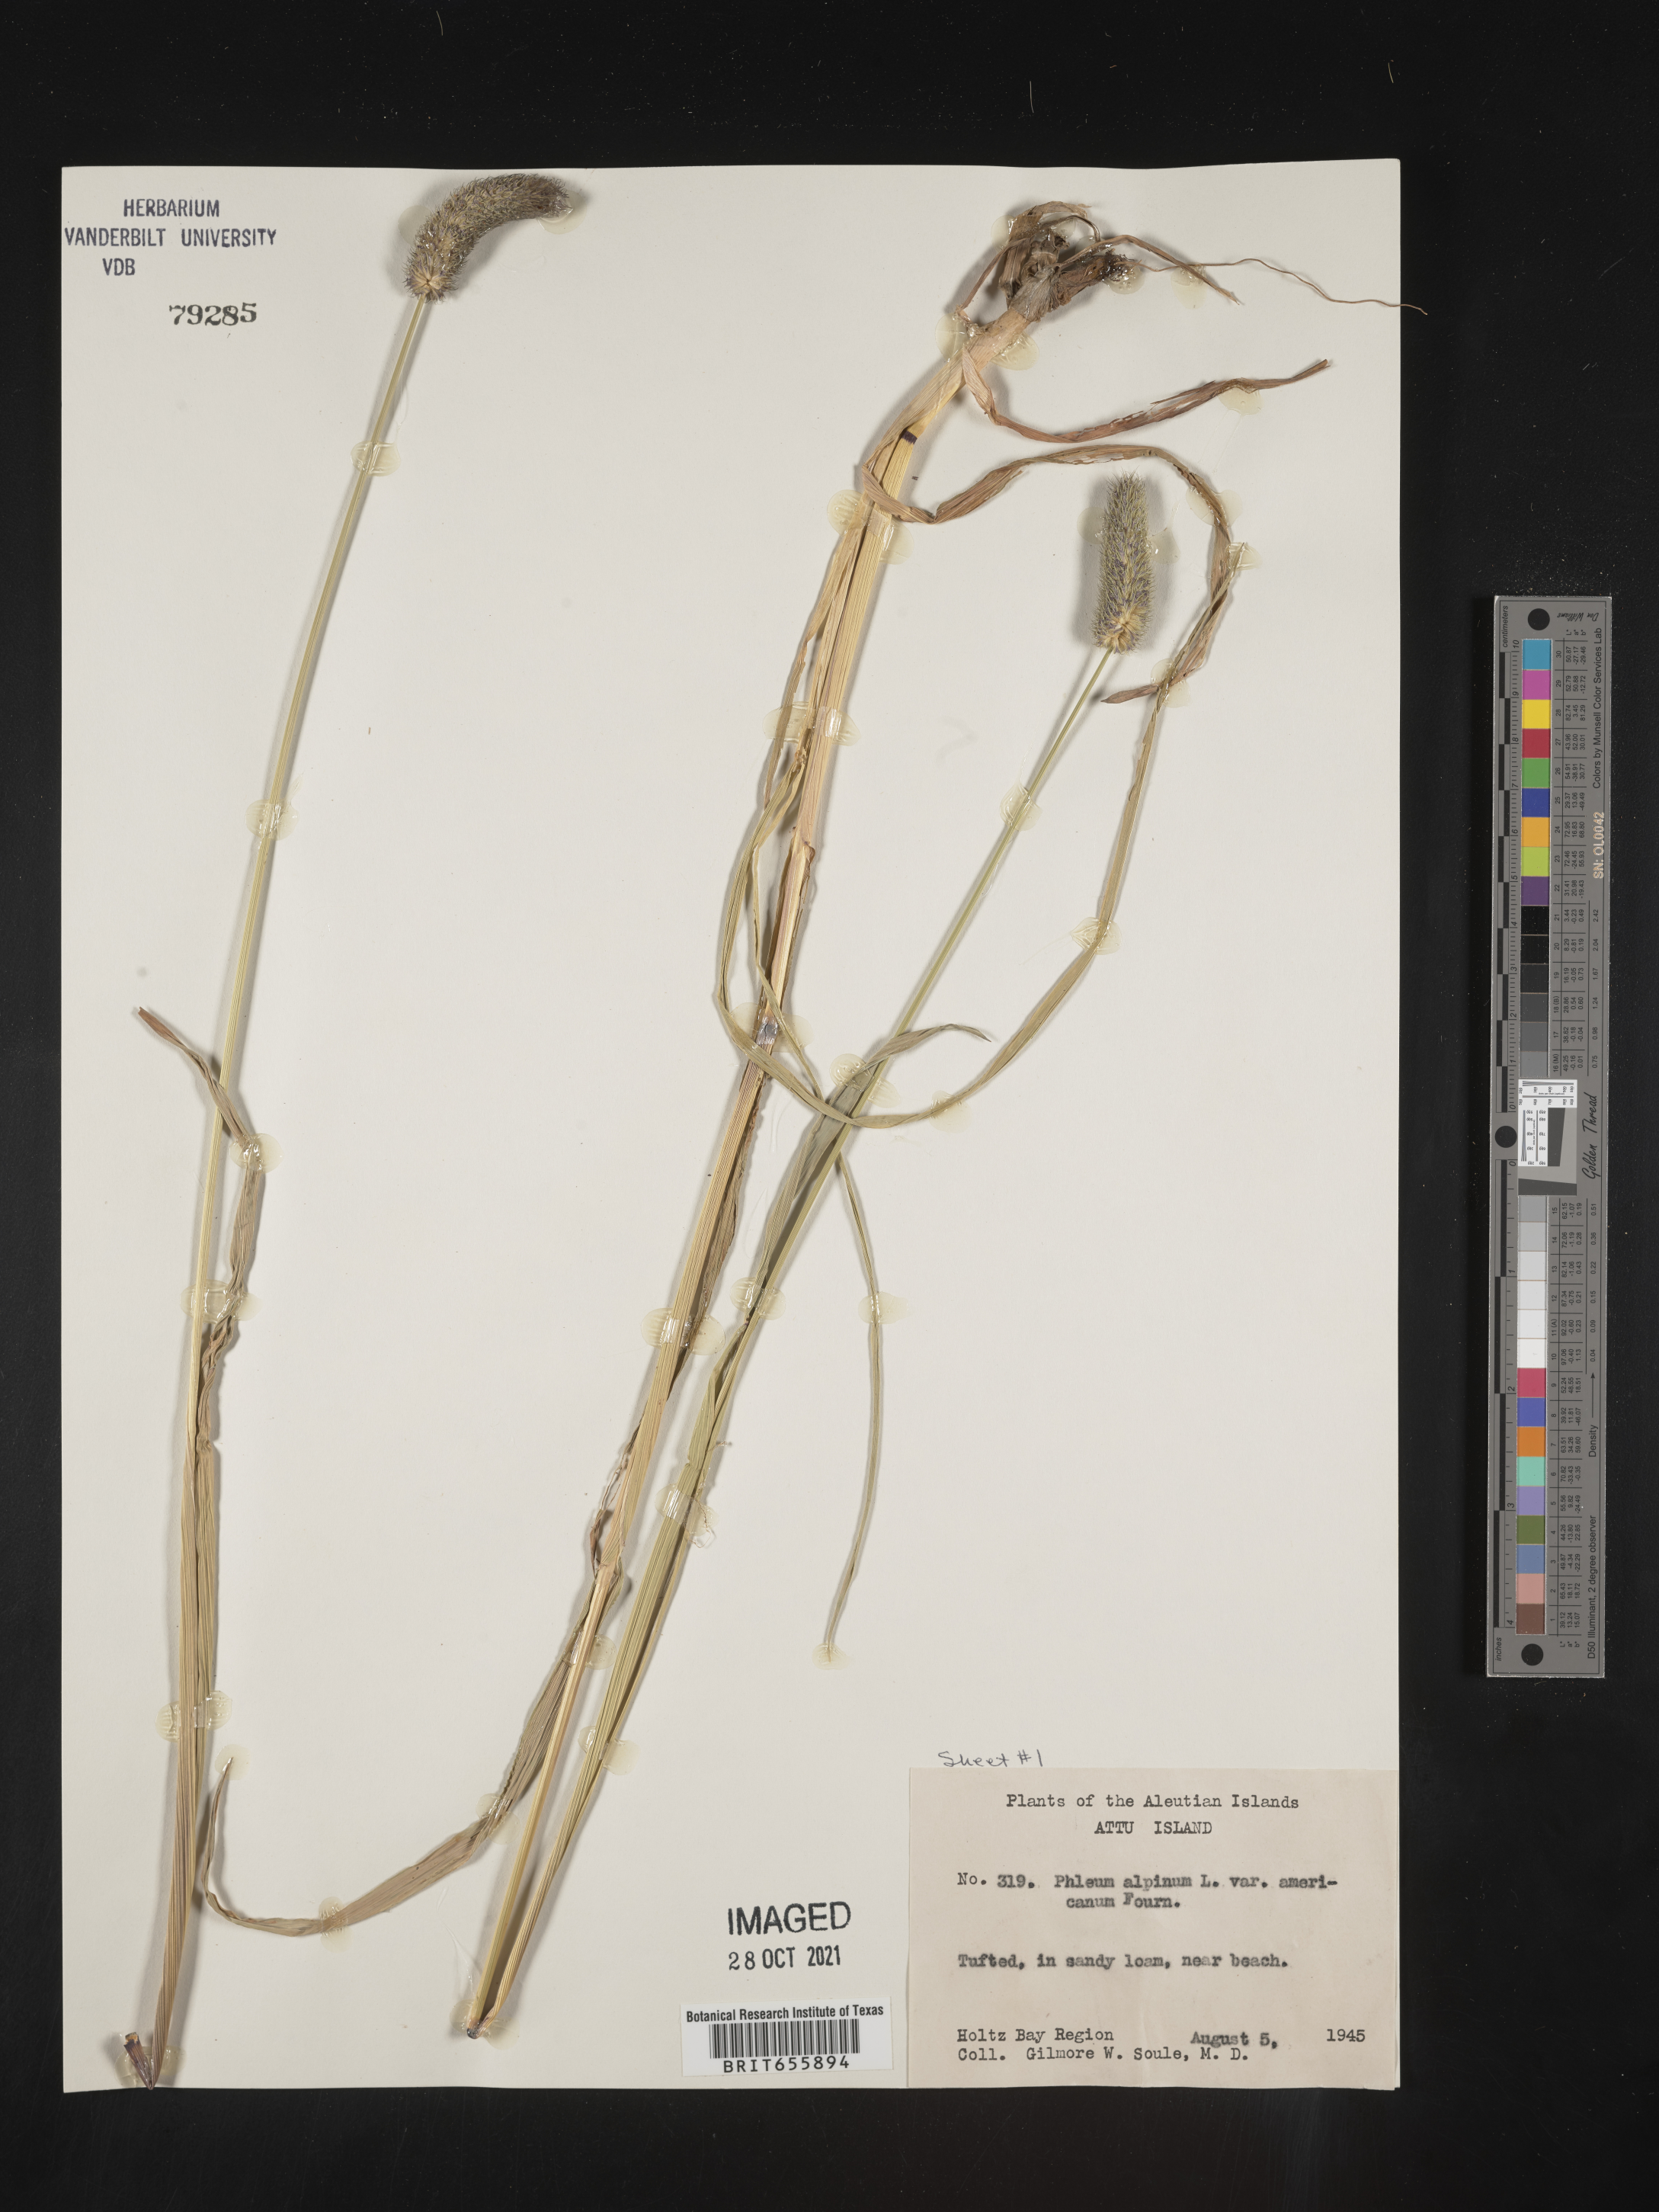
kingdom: Plantae
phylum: Tracheophyta
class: Liliopsida
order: Poales
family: Poaceae
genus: Phleum
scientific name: Phleum
